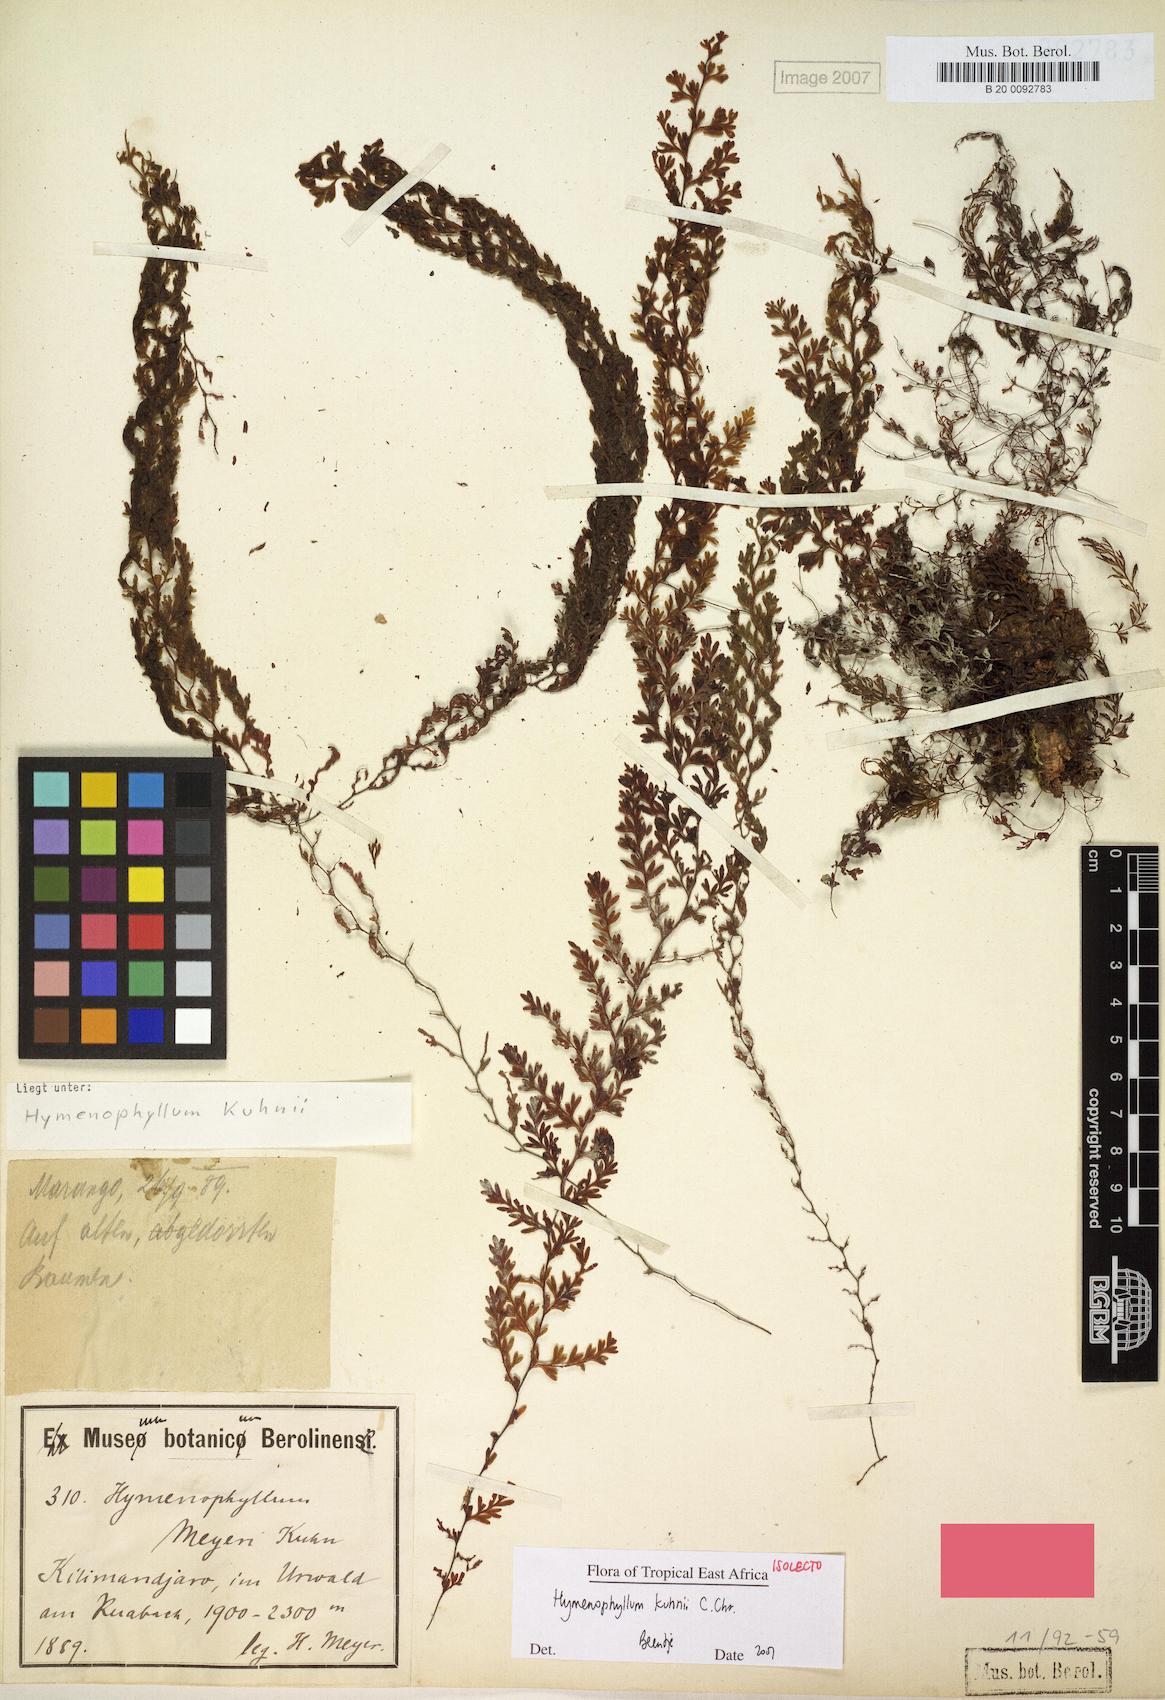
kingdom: Plantae
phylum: Tracheophyta
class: Polypodiopsida
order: Hymenophyllales
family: Hymenophyllaceae
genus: Hymenophyllum
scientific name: Hymenophyllum kuhnii
